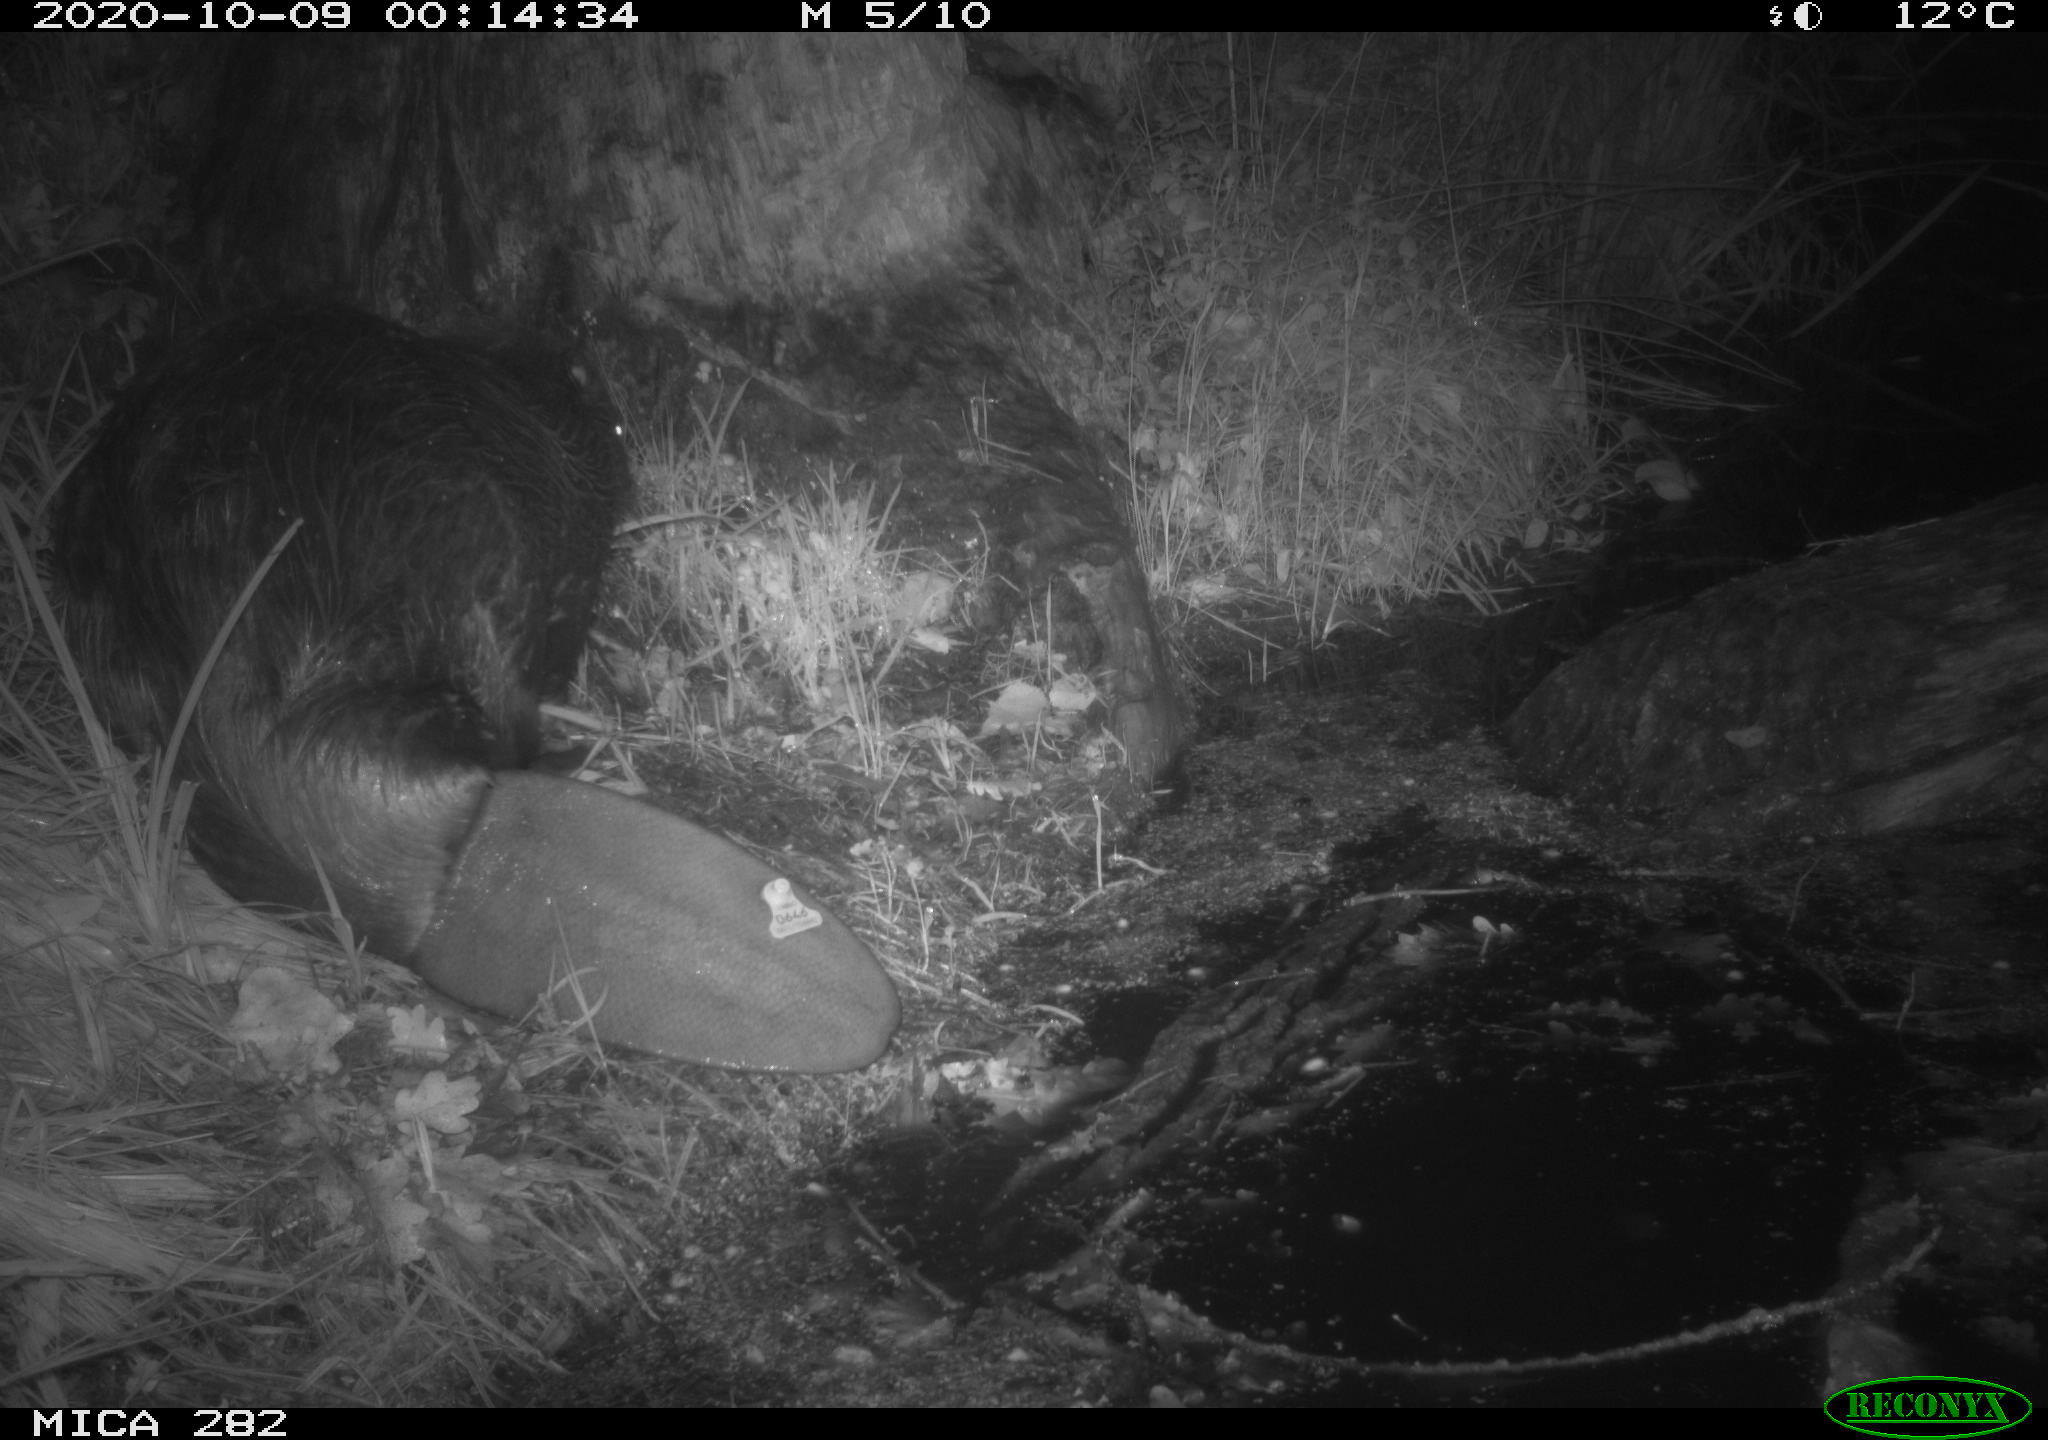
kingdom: Animalia
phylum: Chordata
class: Mammalia
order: Rodentia
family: Castoridae
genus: Castor
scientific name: Castor fiber
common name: Eurasian beaver
